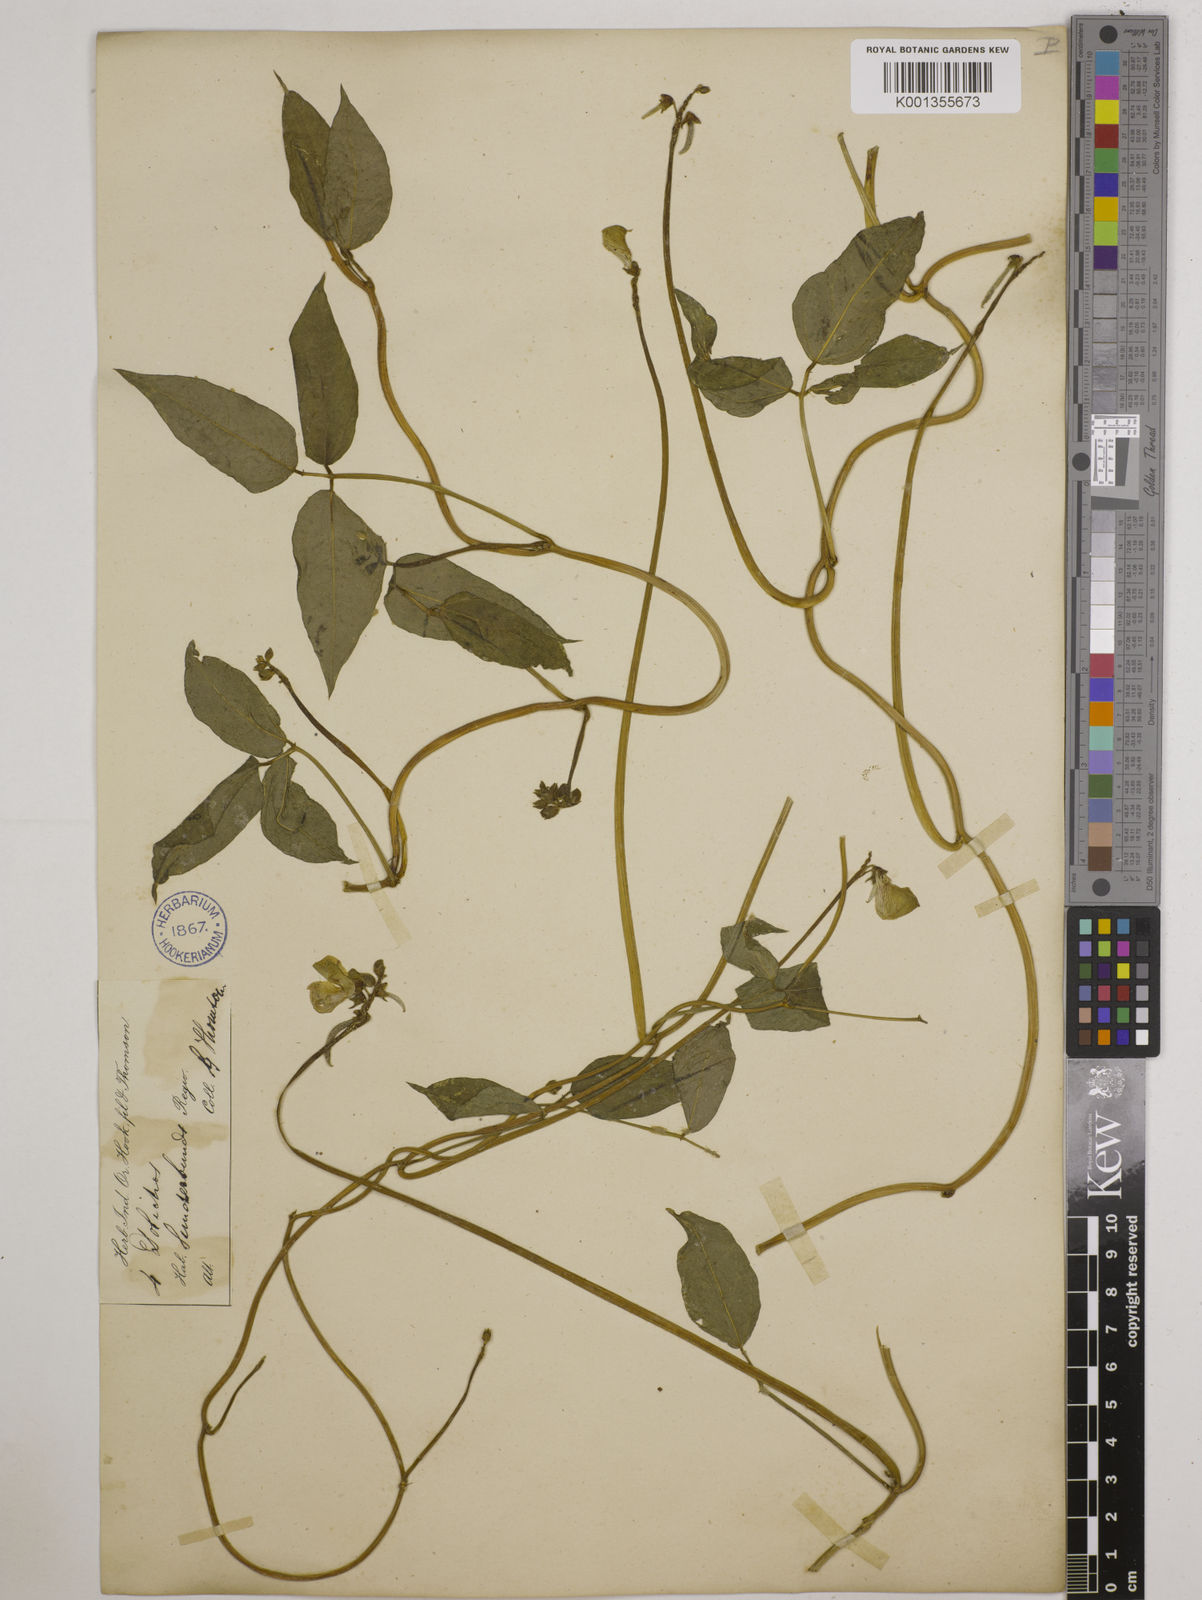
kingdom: Plantae
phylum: Tracheophyta
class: Magnoliopsida
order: Fabales
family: Fabaceae
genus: Vigna
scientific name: Vigna luteola
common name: Hairypod cowpea
